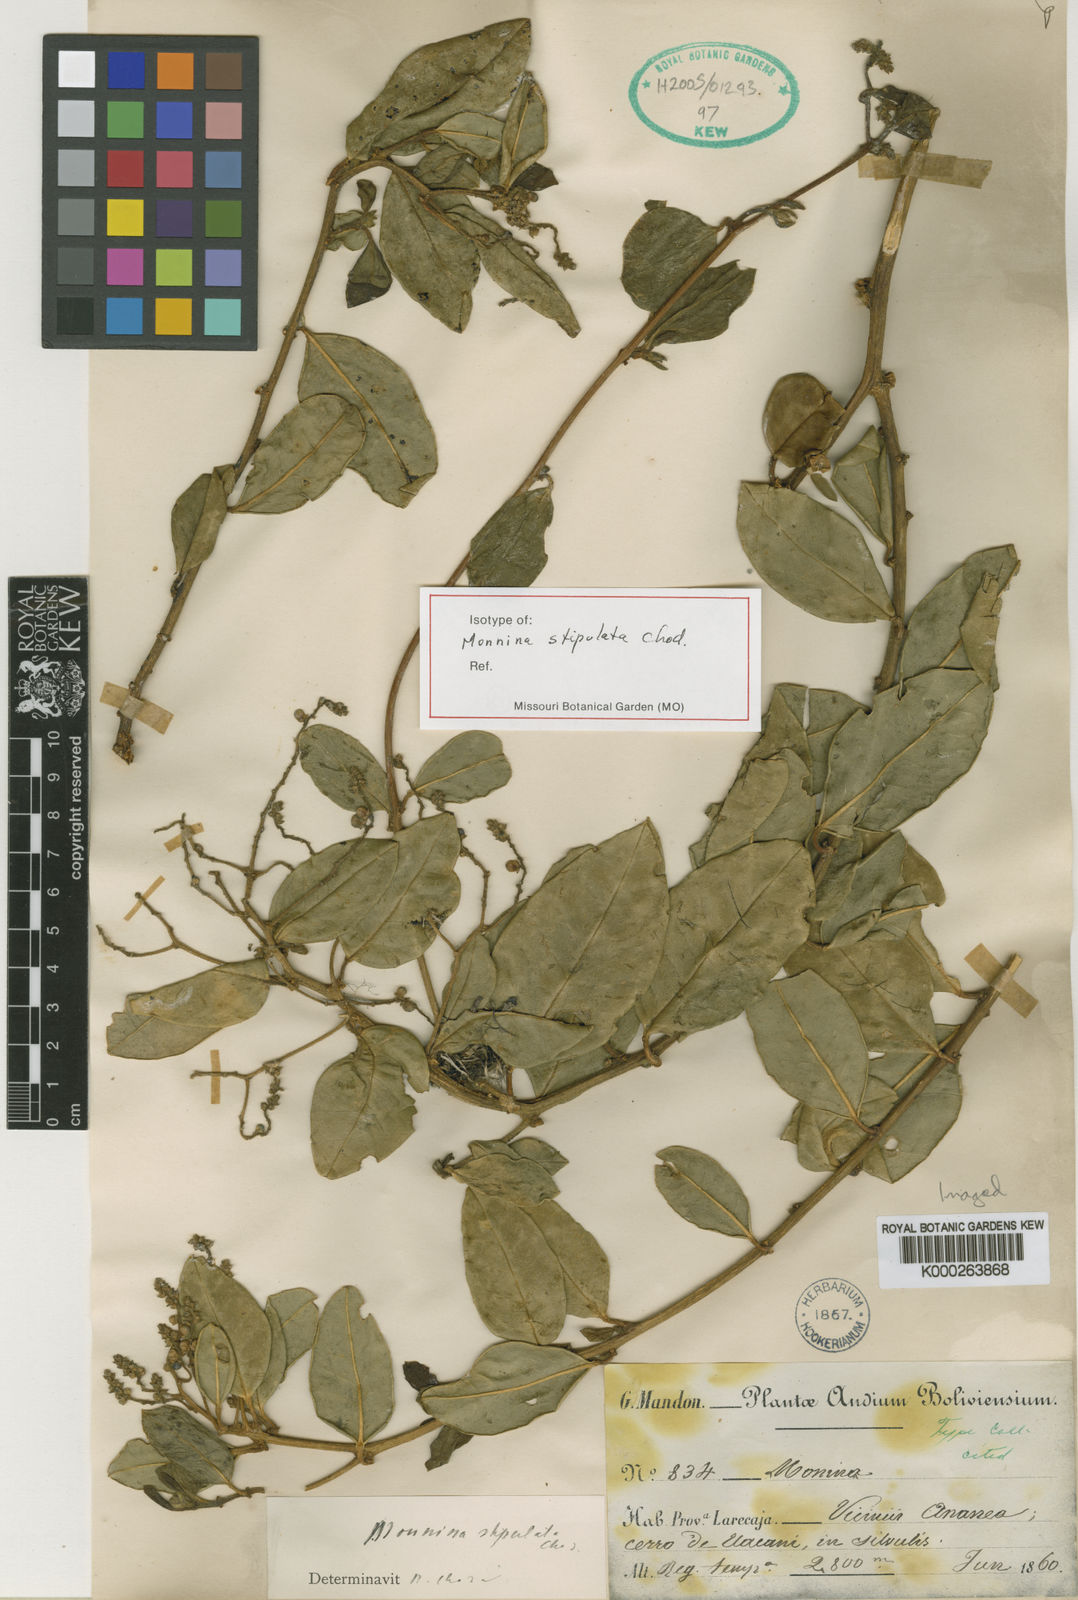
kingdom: Plantae
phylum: Tracheophyta
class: Magnoliopsida
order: Fabales
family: Polygalaceae
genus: Monnina
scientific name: Monnina stipulata
